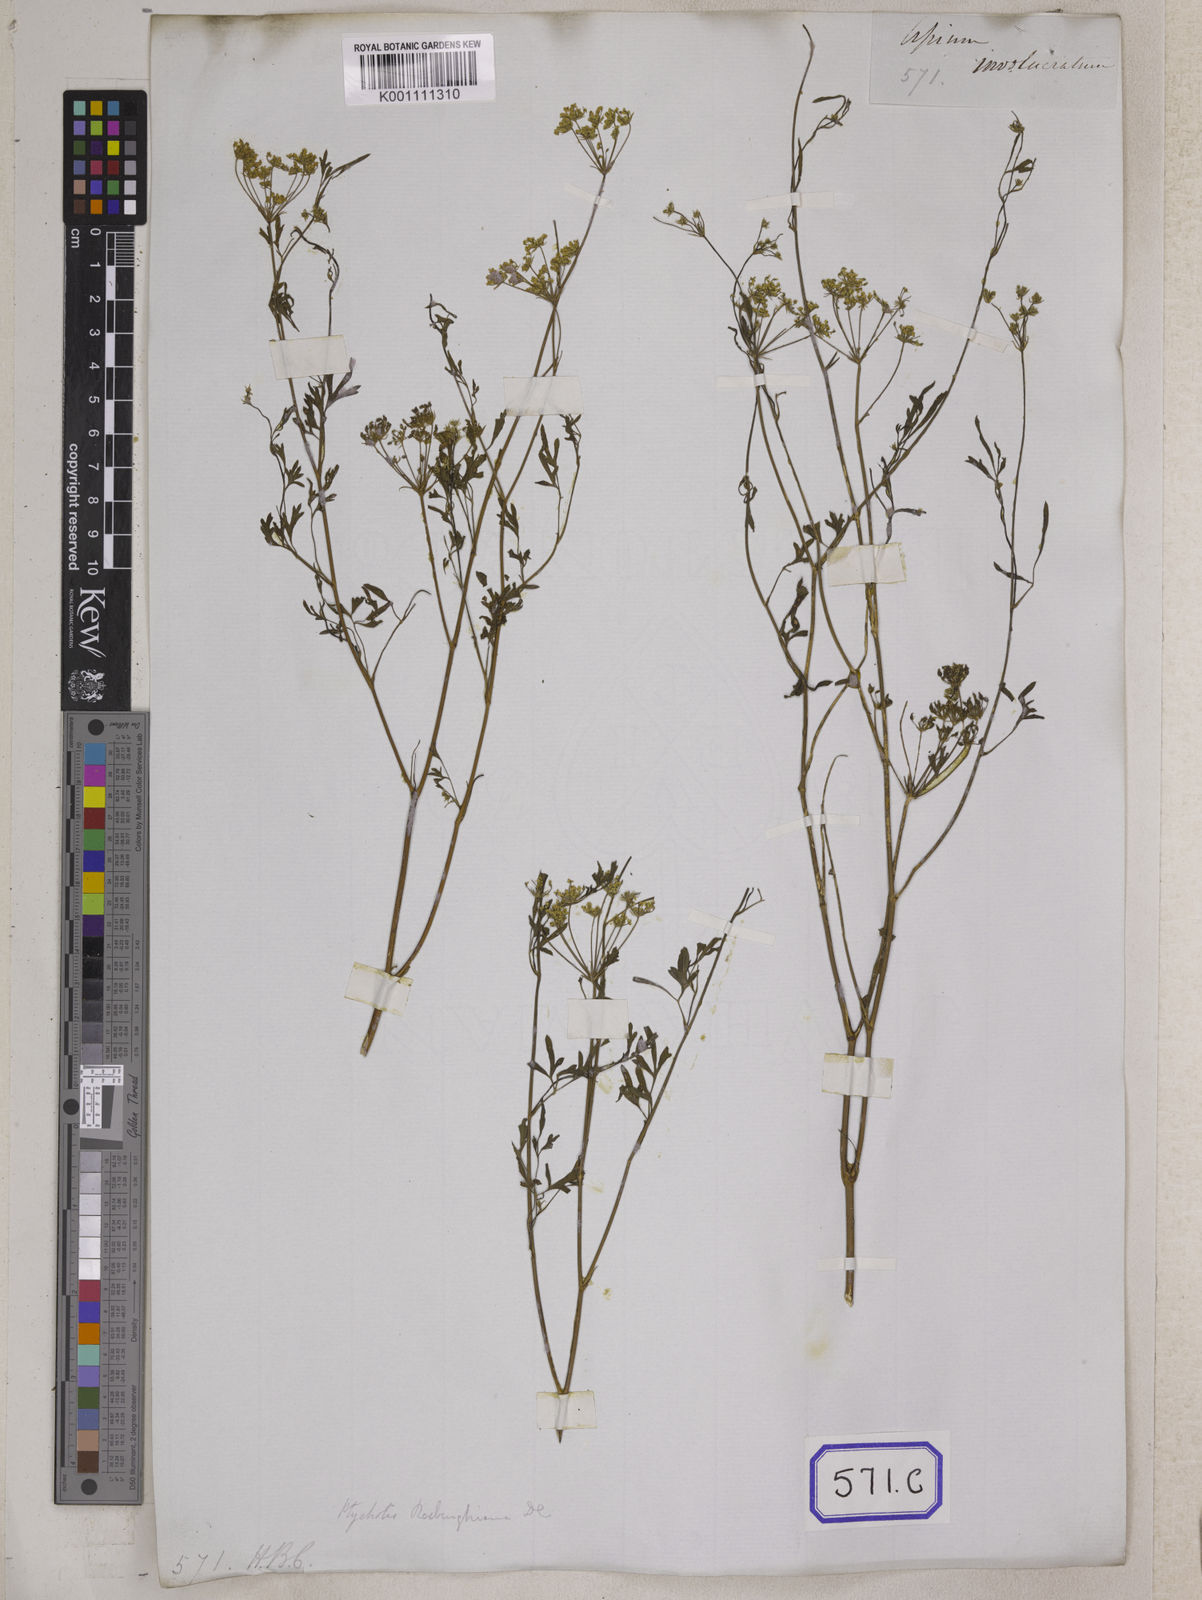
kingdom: Plantae
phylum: Tracheophyta
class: Magnoliopsida
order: Apiales
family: Apiaceae
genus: Psammogeton
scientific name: Psammogeton involucratum
